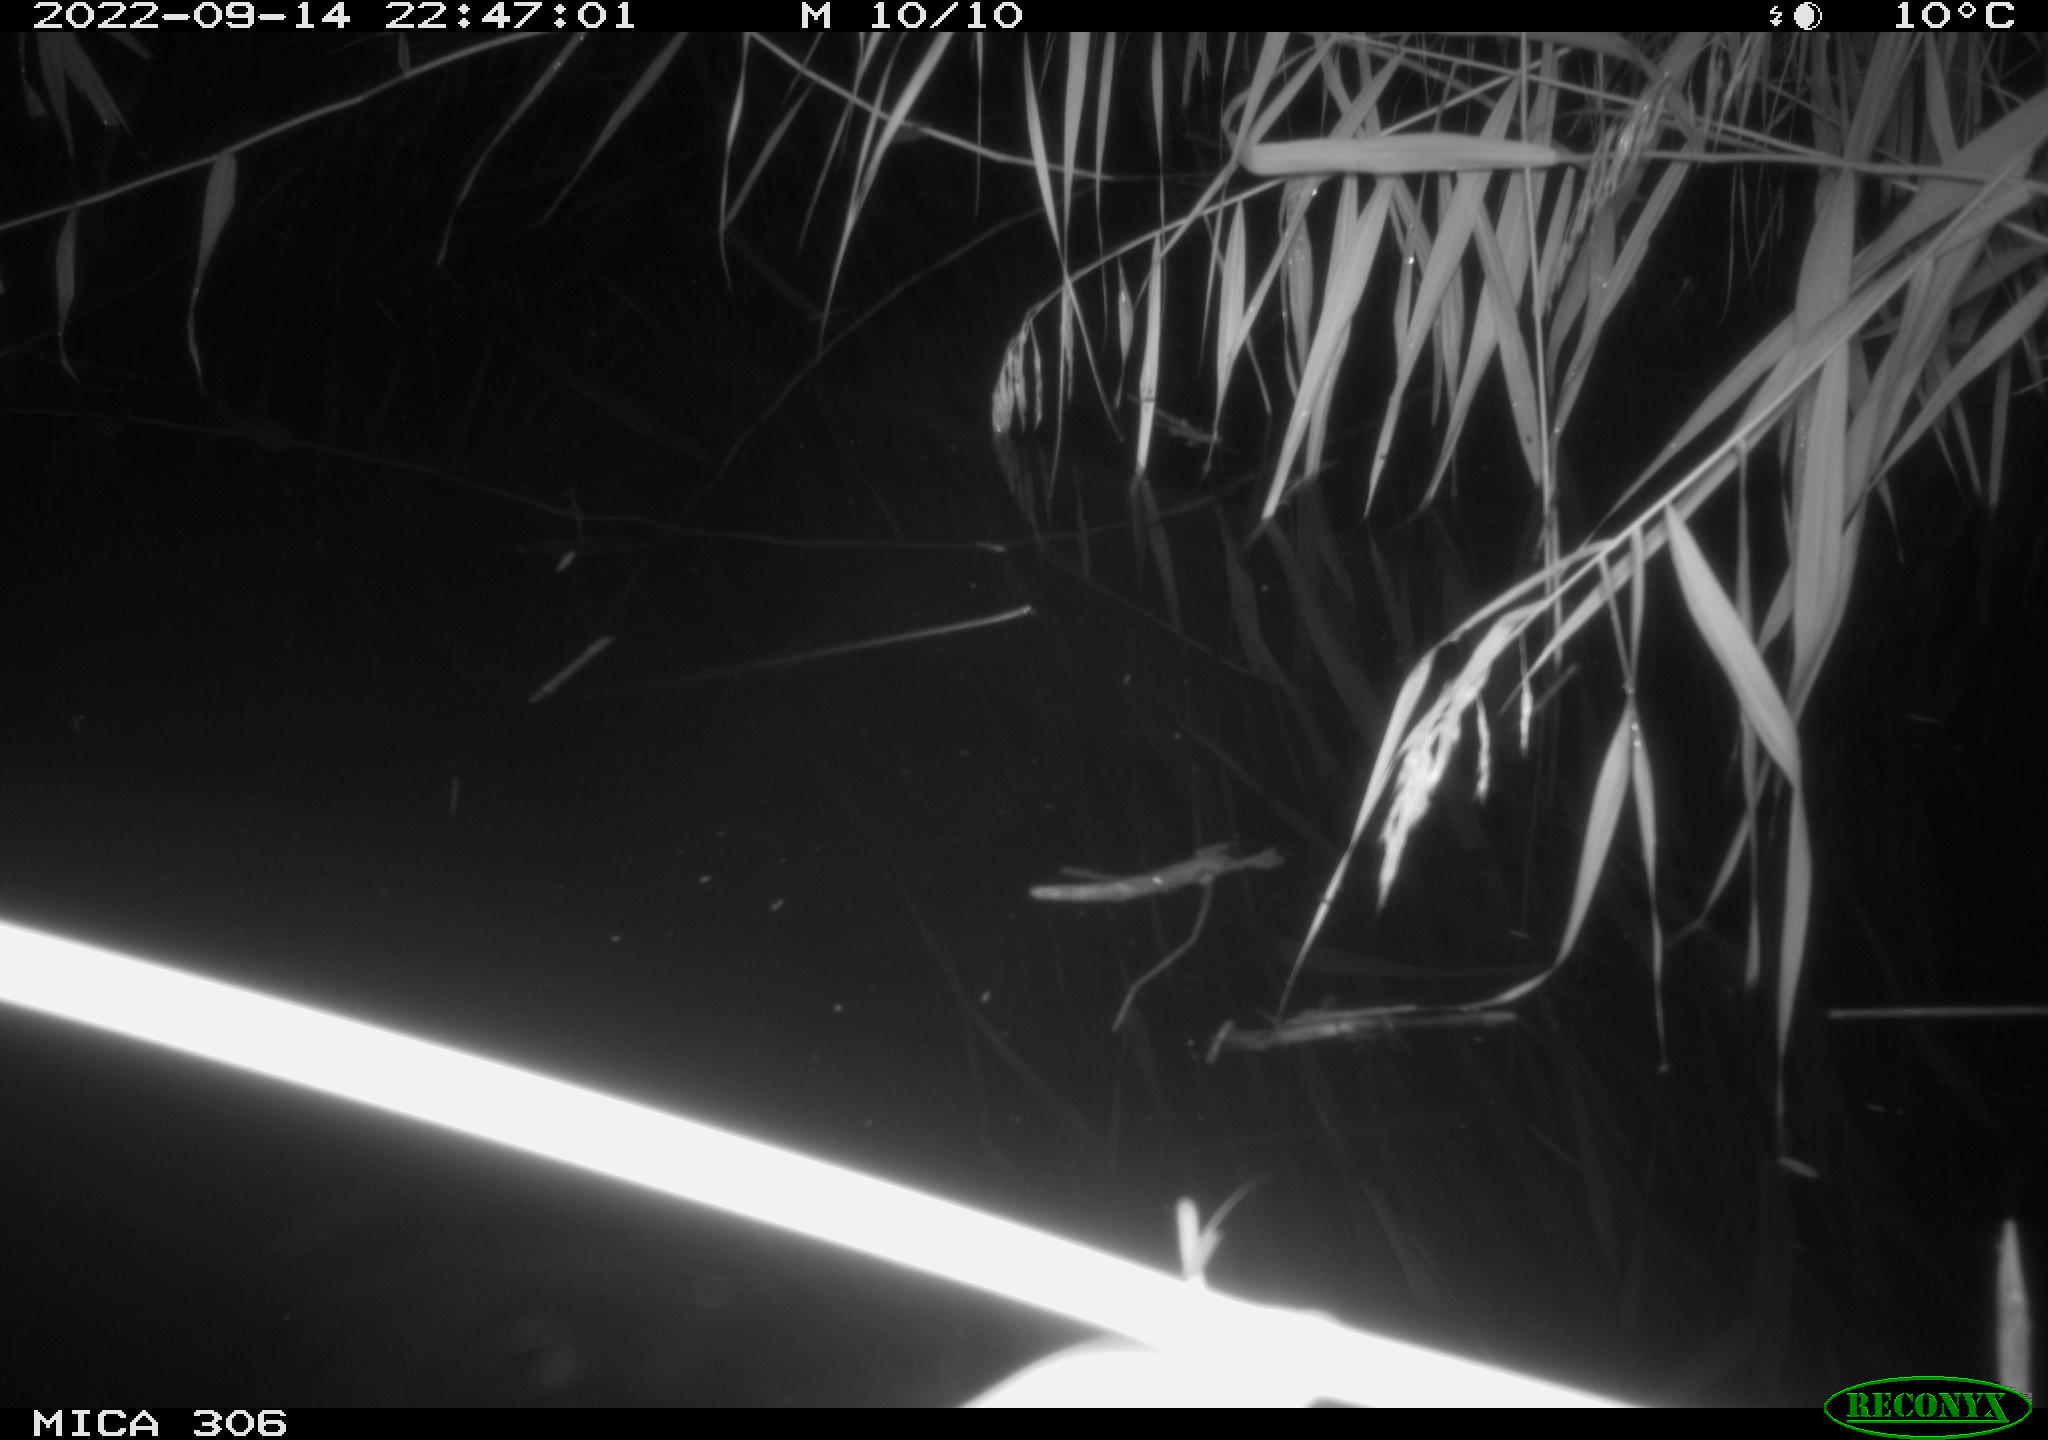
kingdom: Animalia
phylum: Chordata
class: Mammalia
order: Rodentia
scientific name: Rodentia
